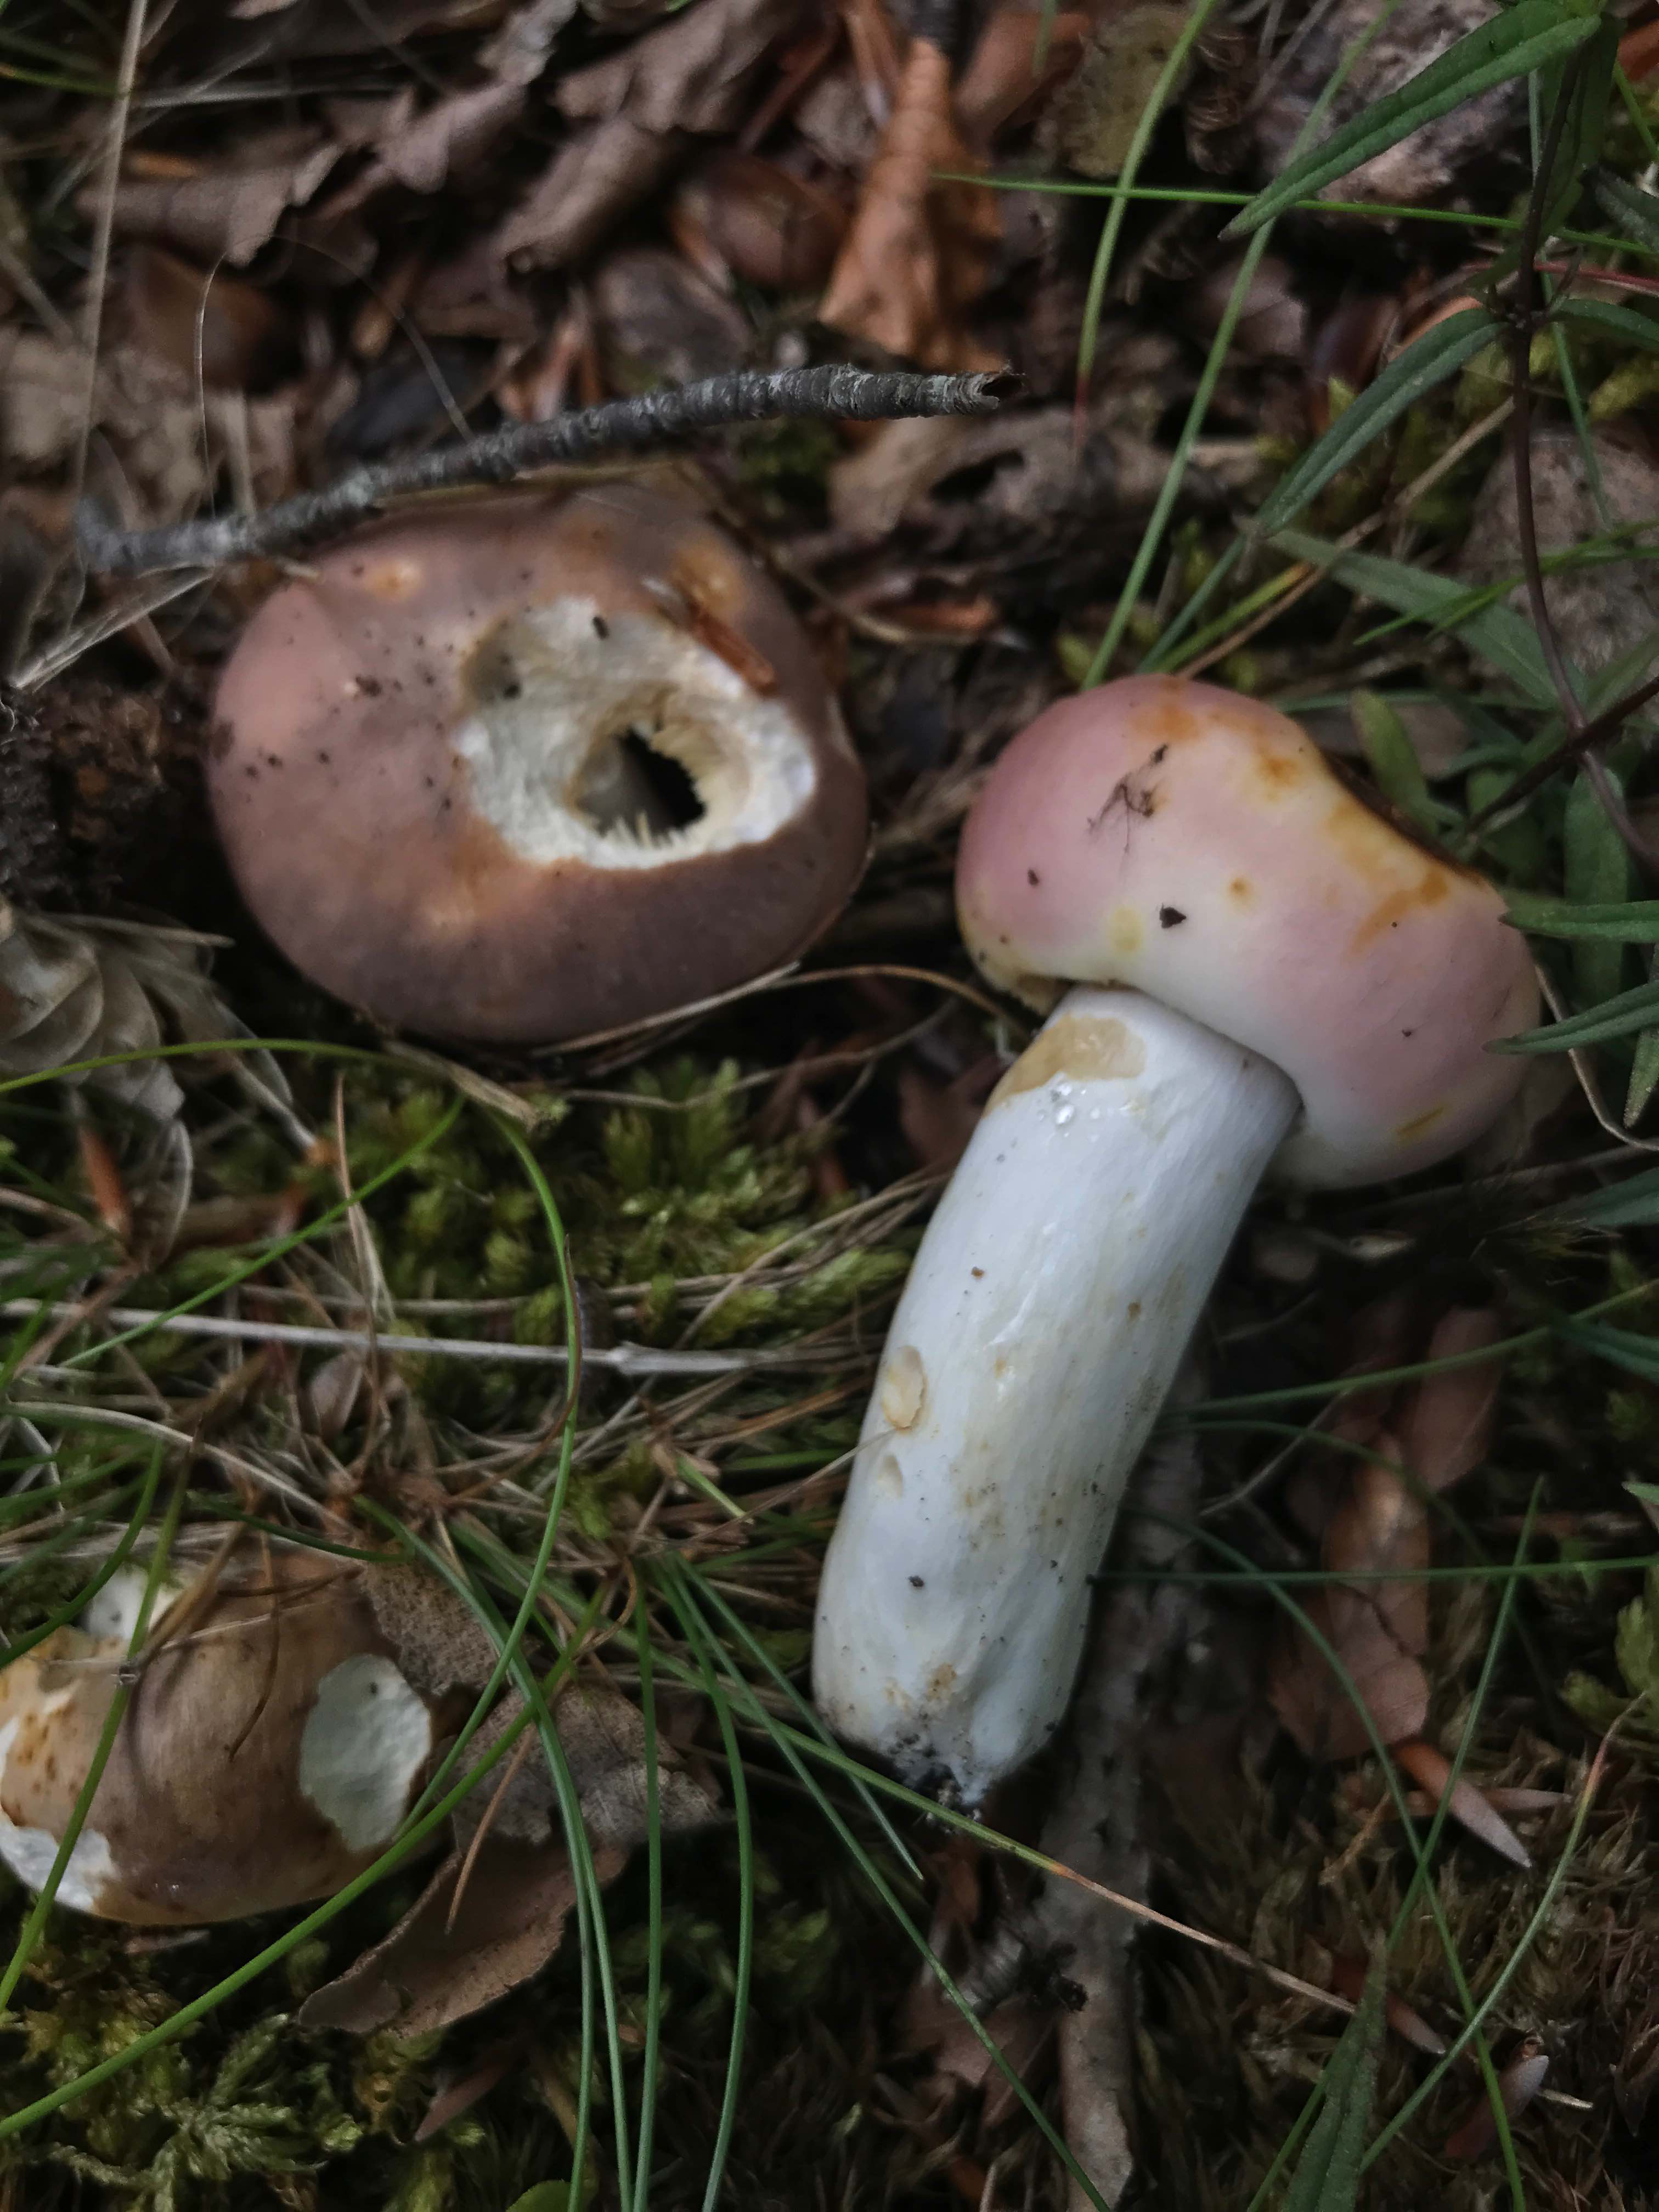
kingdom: Fungi
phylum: Basidiomycota
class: Agaricomycetes
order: Russulales
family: Russulaceae
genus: Russula
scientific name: Russula vesca
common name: spiselig skørhat
